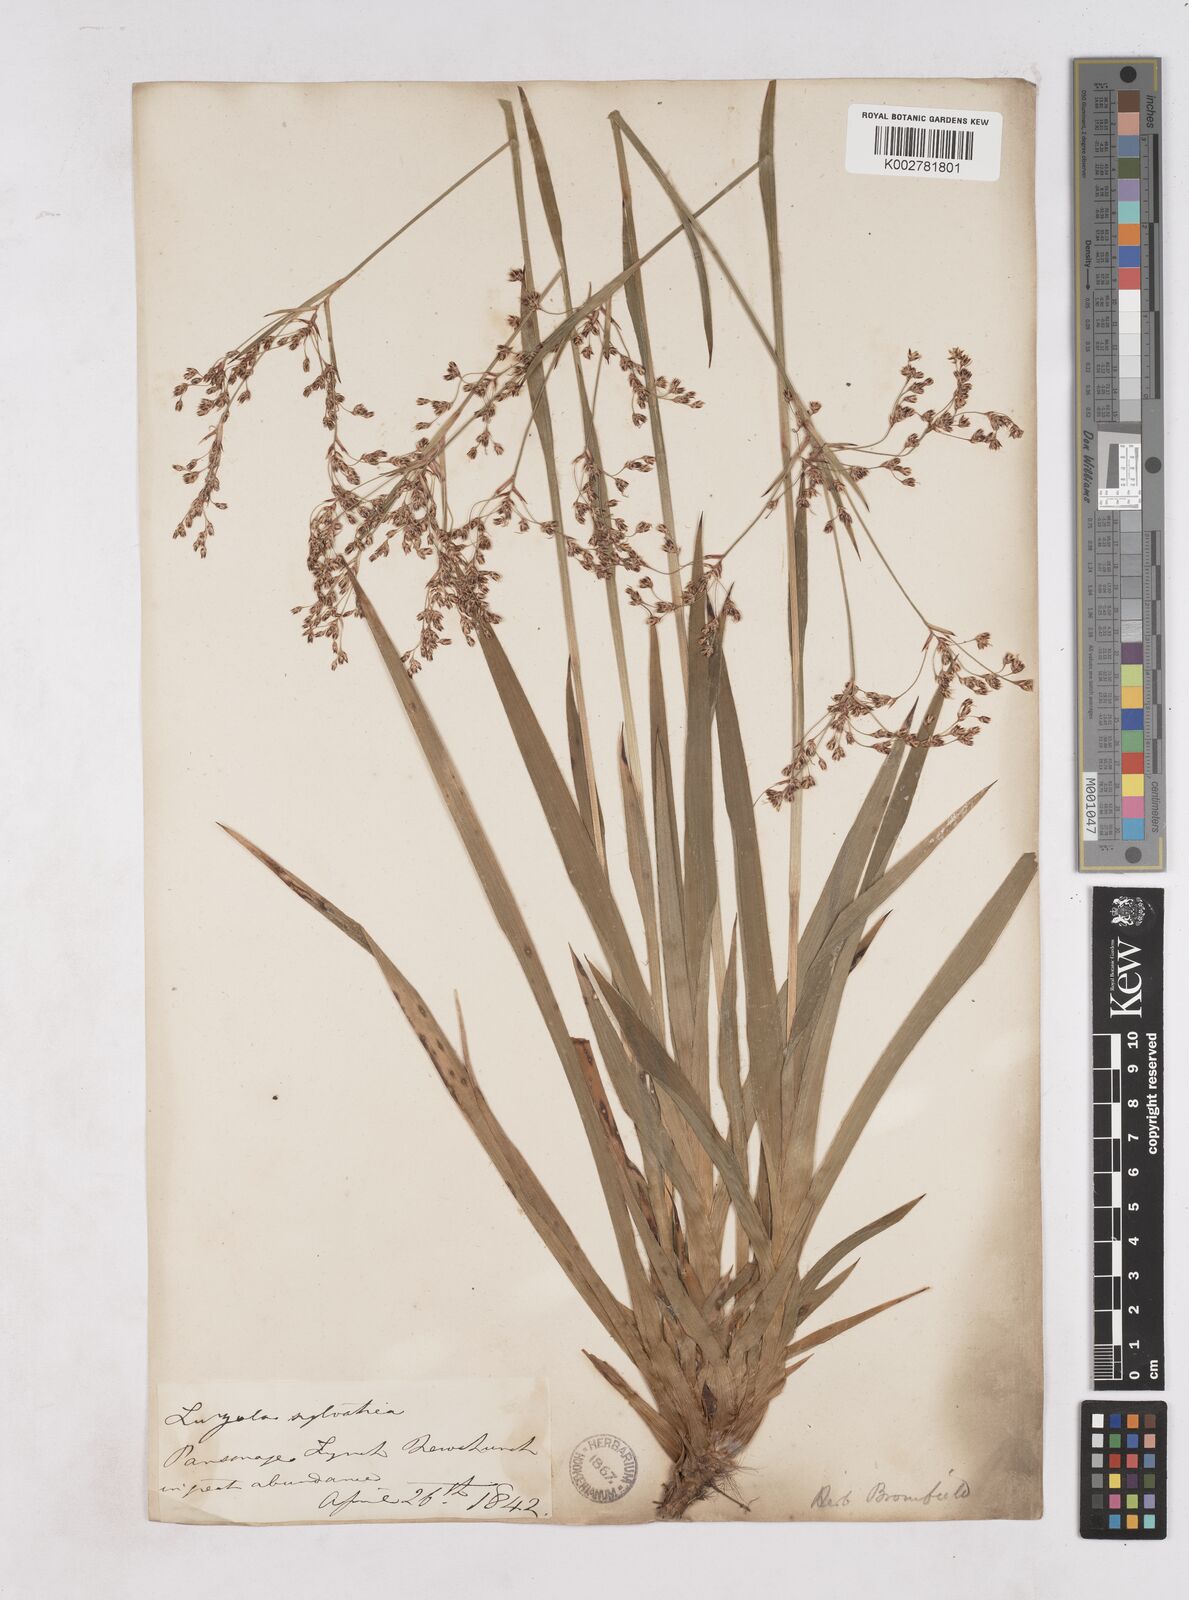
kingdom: Plantae
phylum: Tracheophyta
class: Liliopsida
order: Poales
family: Juncaceae
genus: Luzula
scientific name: Luzula sylvatica
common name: Great wood-rush
